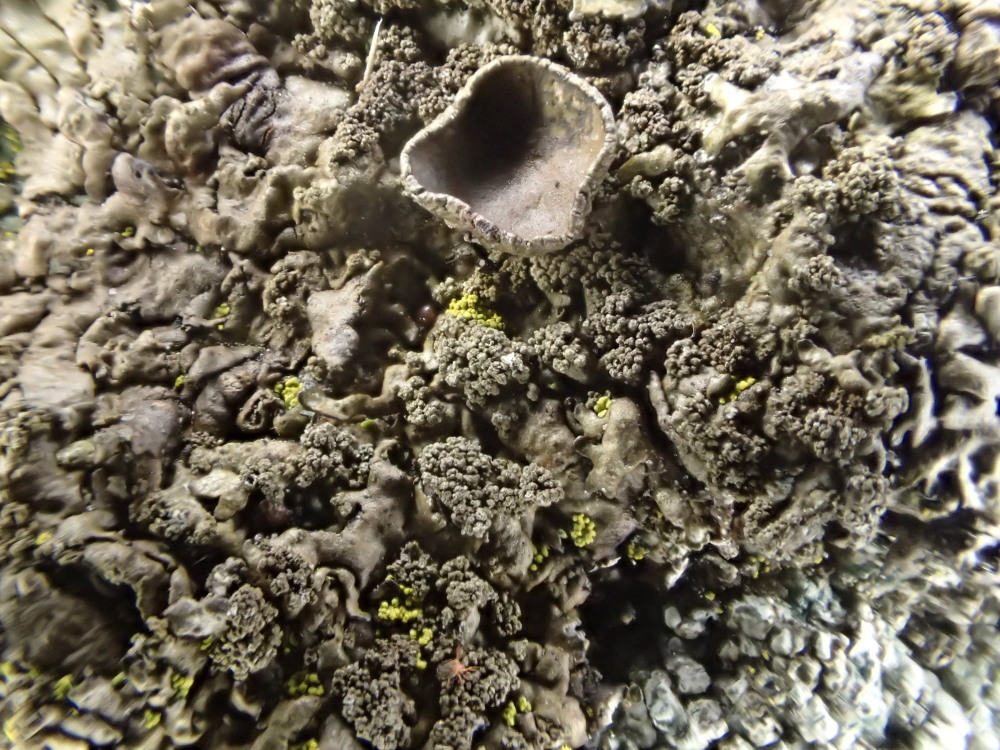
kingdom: Fungi
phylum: Ascomycota
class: Lecanoromycetes
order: Lecanorales
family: Parmeliaceae
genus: Xanthoparmelia
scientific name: Xanthoparmelia loxodes
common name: knudret skållav
